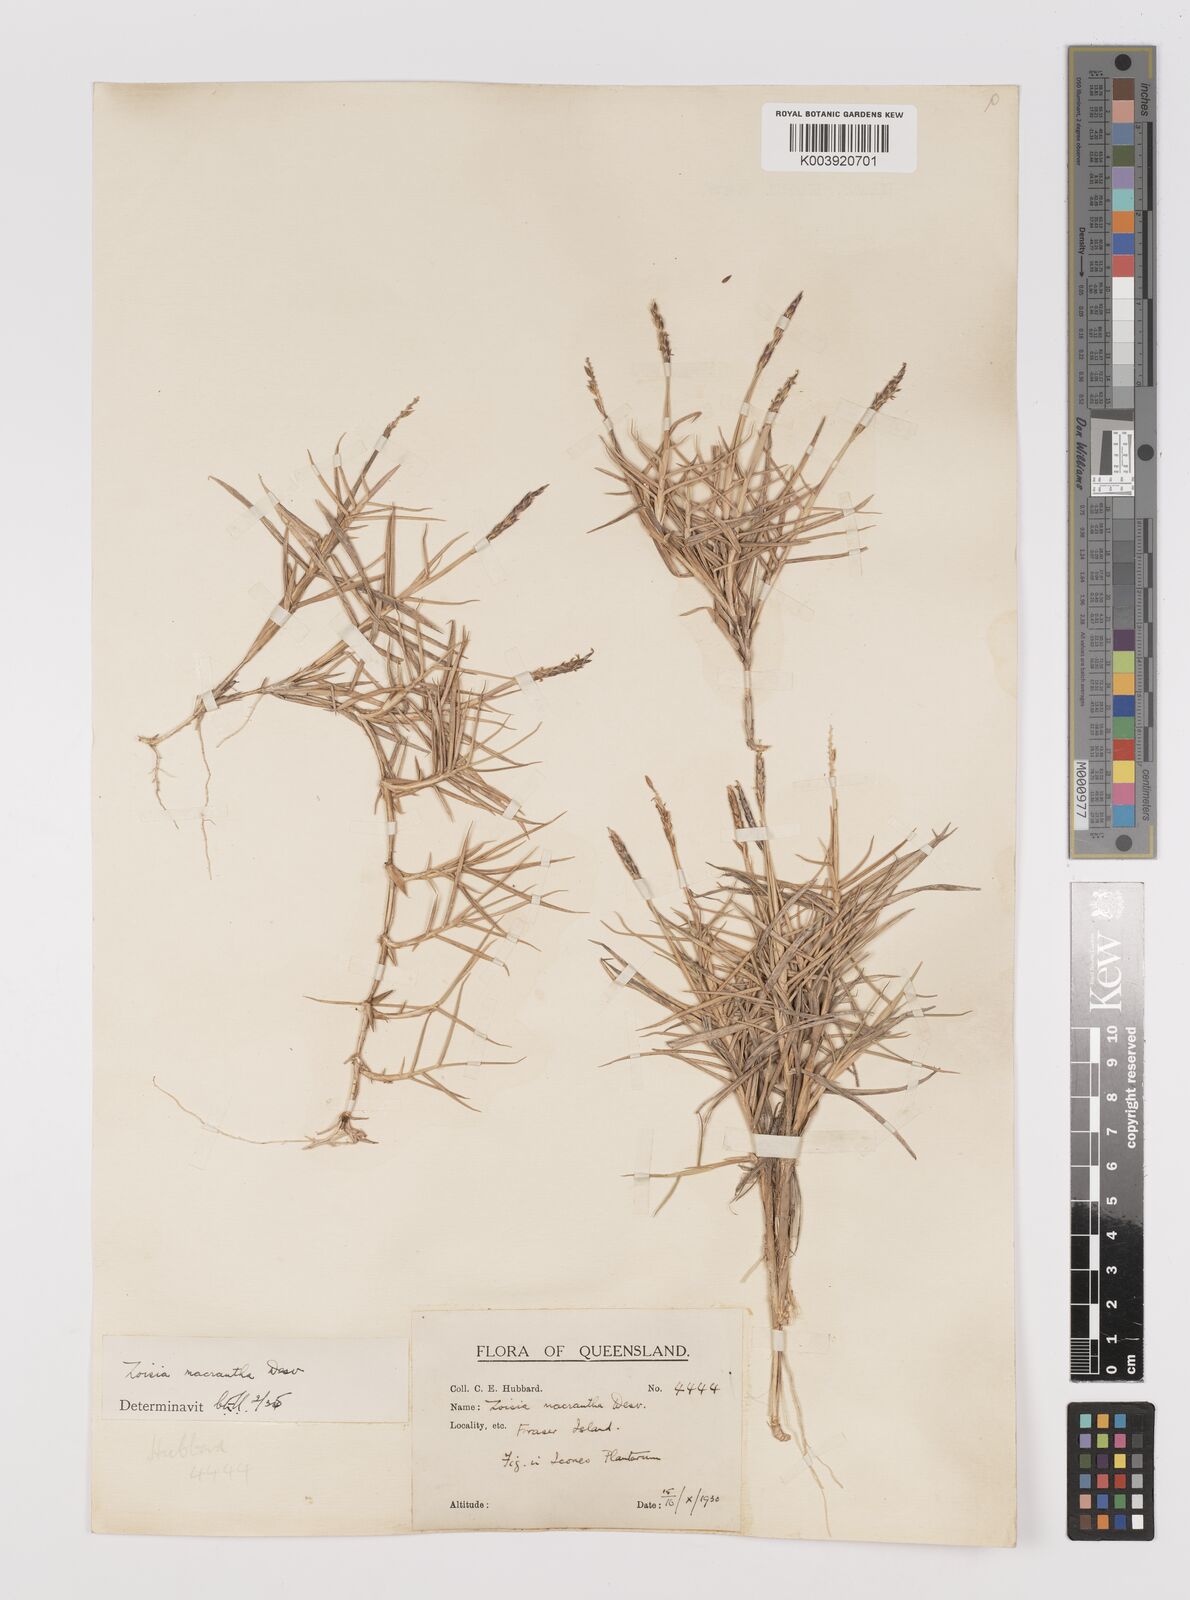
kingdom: Plantae
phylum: Tracheophyta
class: Liliopsida
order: Poales
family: Poaceae
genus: Zoysia
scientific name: Zoysia macrantha
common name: Korean lawn grass
